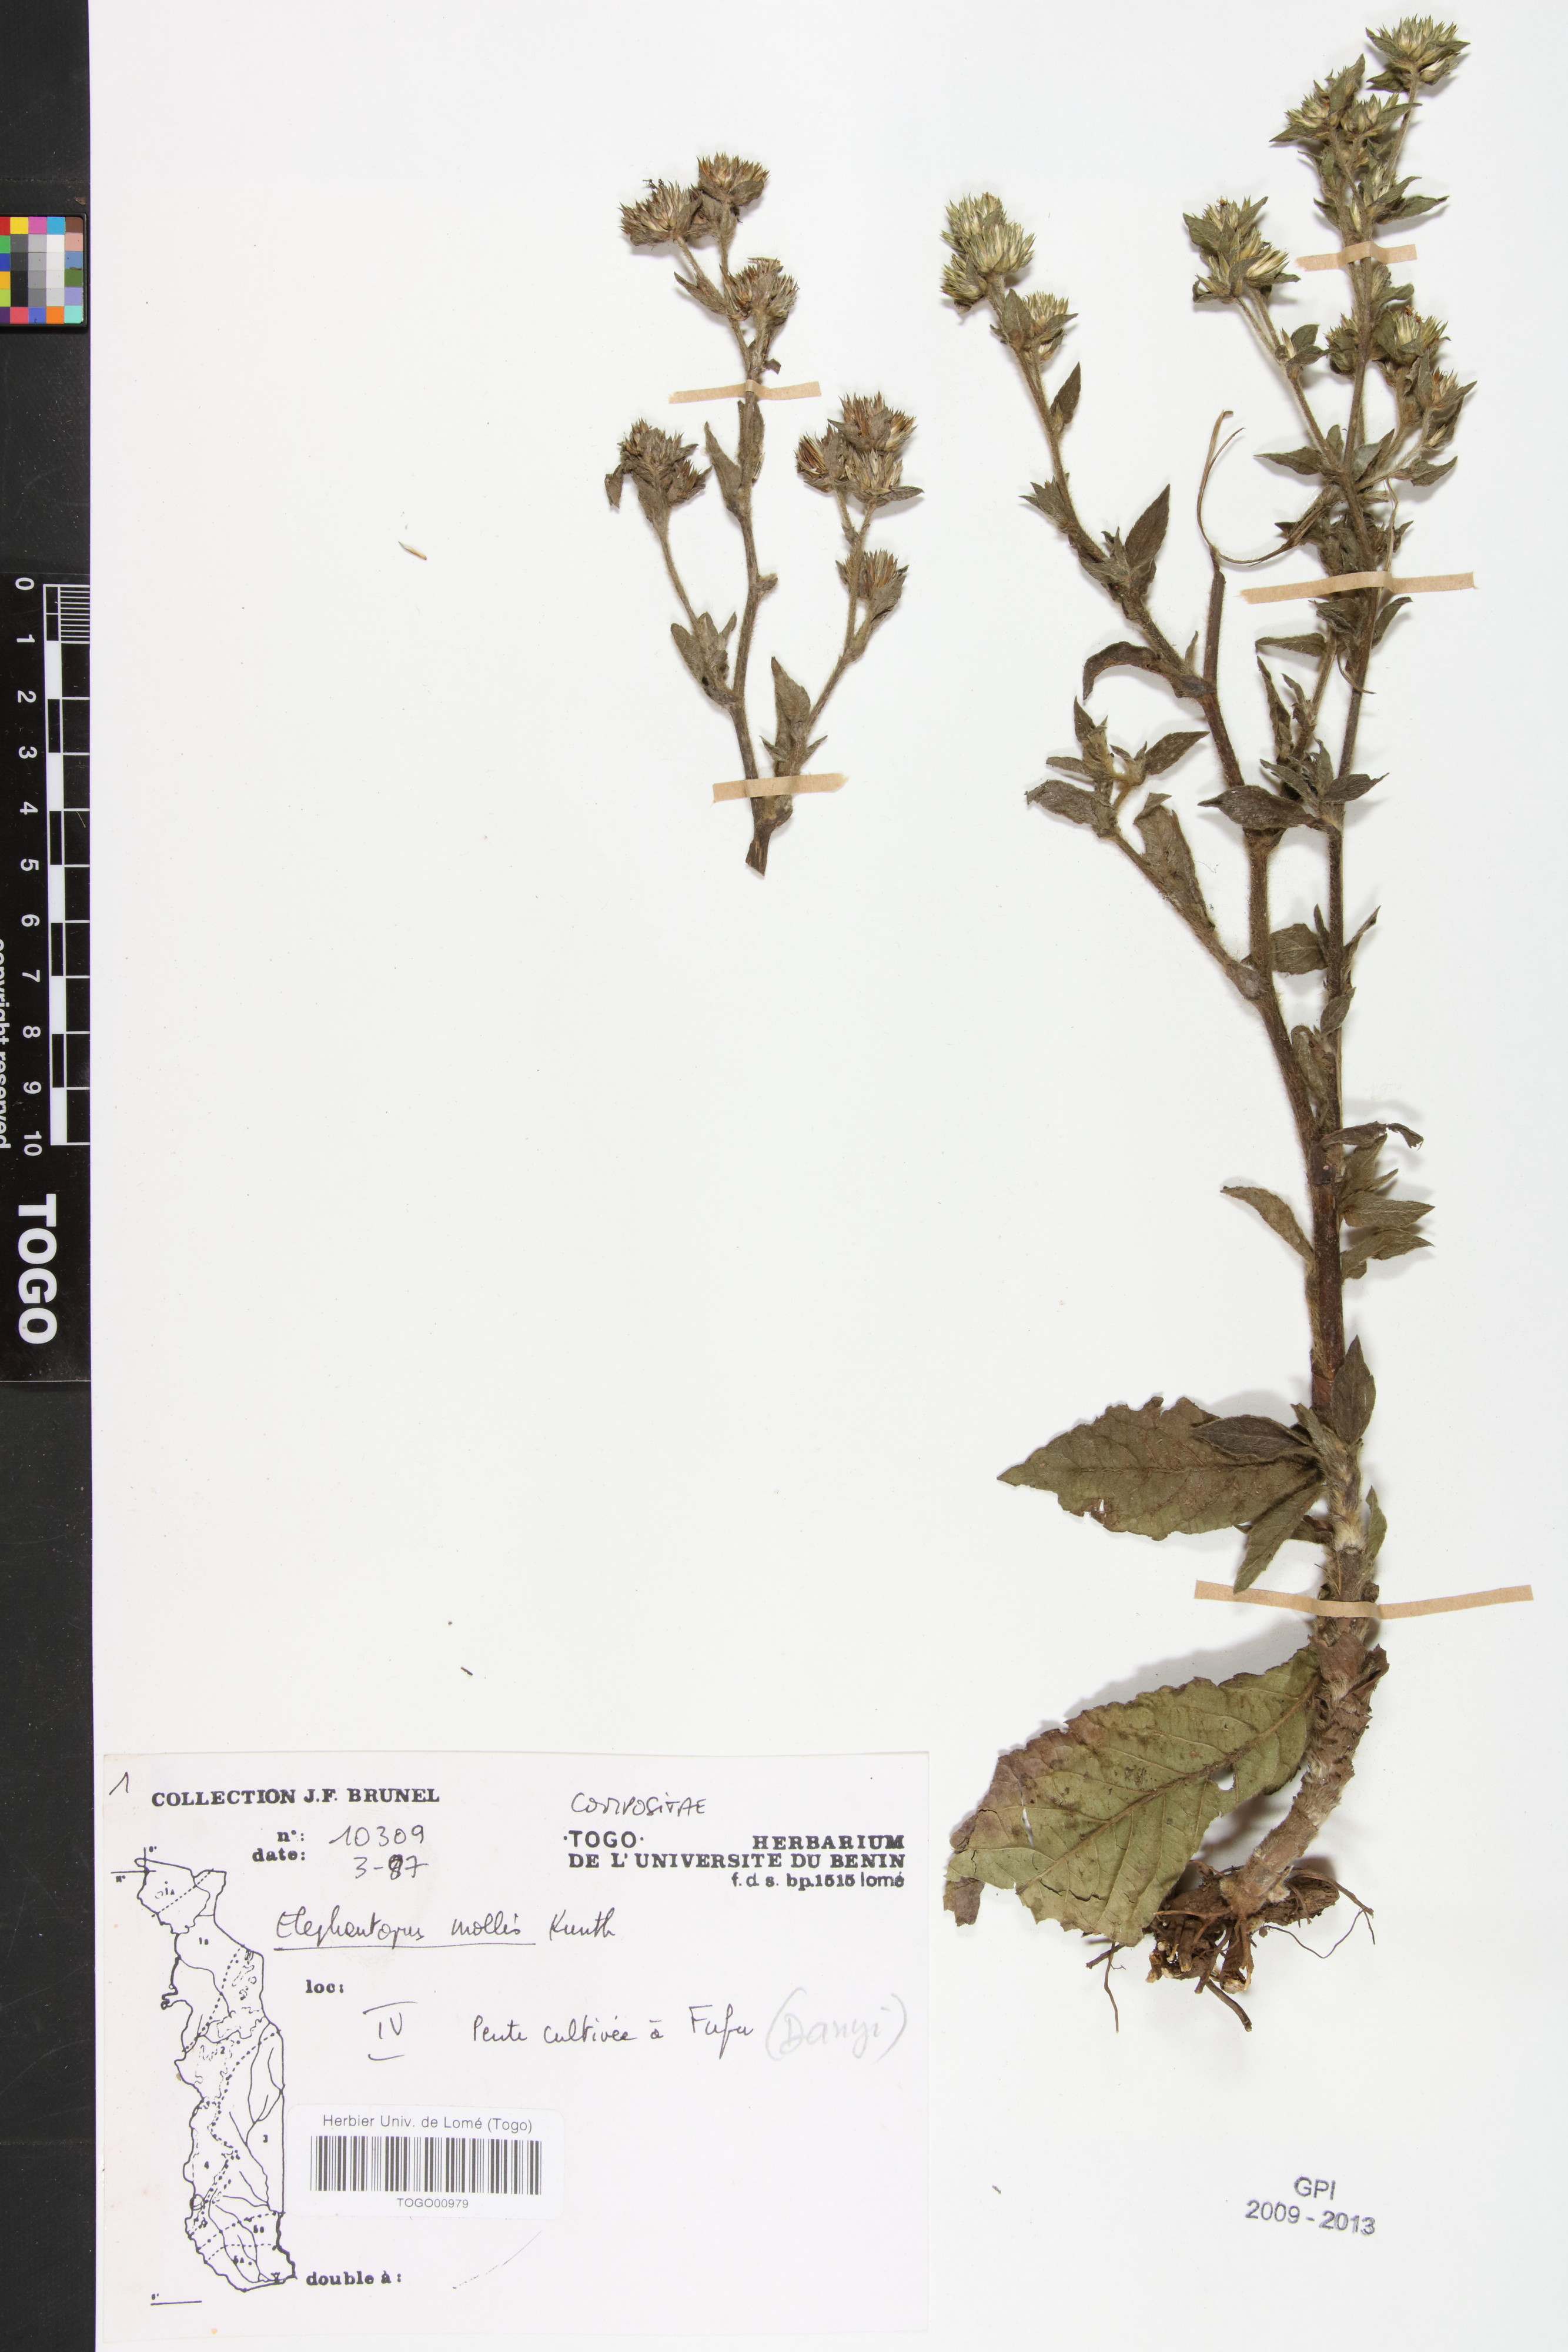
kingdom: Plantae
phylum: Tracheophyta
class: Magnoliopsida
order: Asterales
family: Asteraceae
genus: Elephantopus
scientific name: Elephantopus mollis
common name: Soft elephantsfoot
